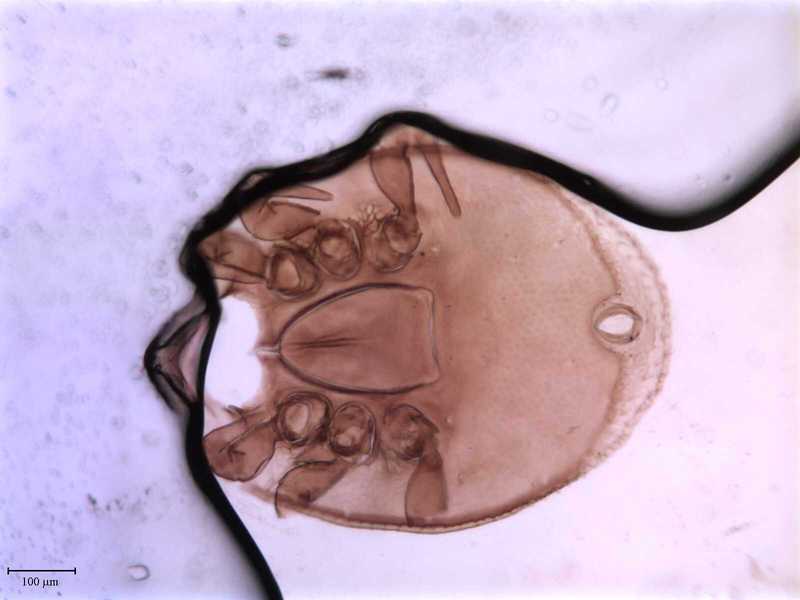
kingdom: Animalia
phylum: Arthropoda
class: Arachnida
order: Mesostigmata
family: Trematuridae
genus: Trichouropoda
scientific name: Trichouropoda
